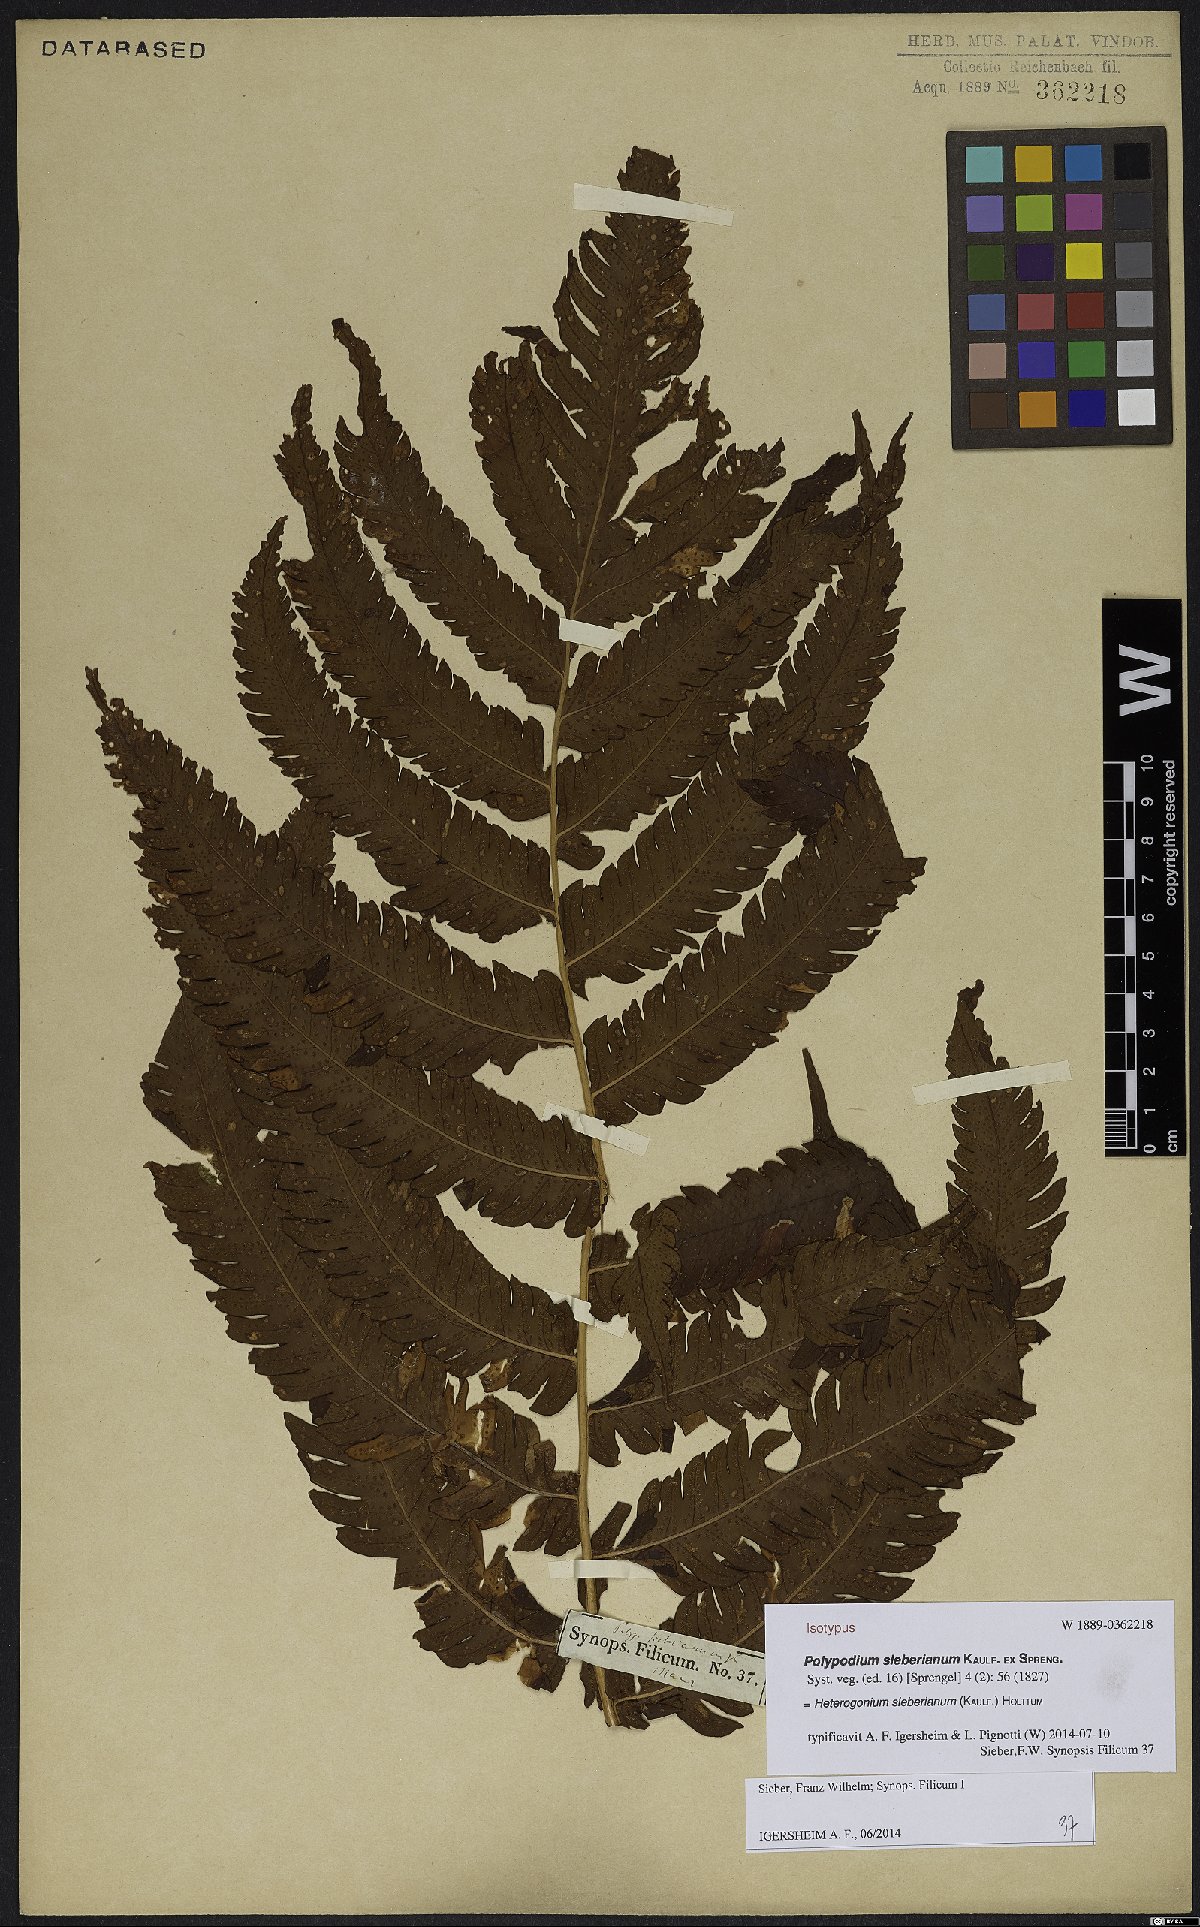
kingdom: Plantae
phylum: Tracheophyta
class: Polypodiopsida
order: Polypodiales
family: Dryopteridaceae
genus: Ctenitis
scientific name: Ctenitis sieberiana
